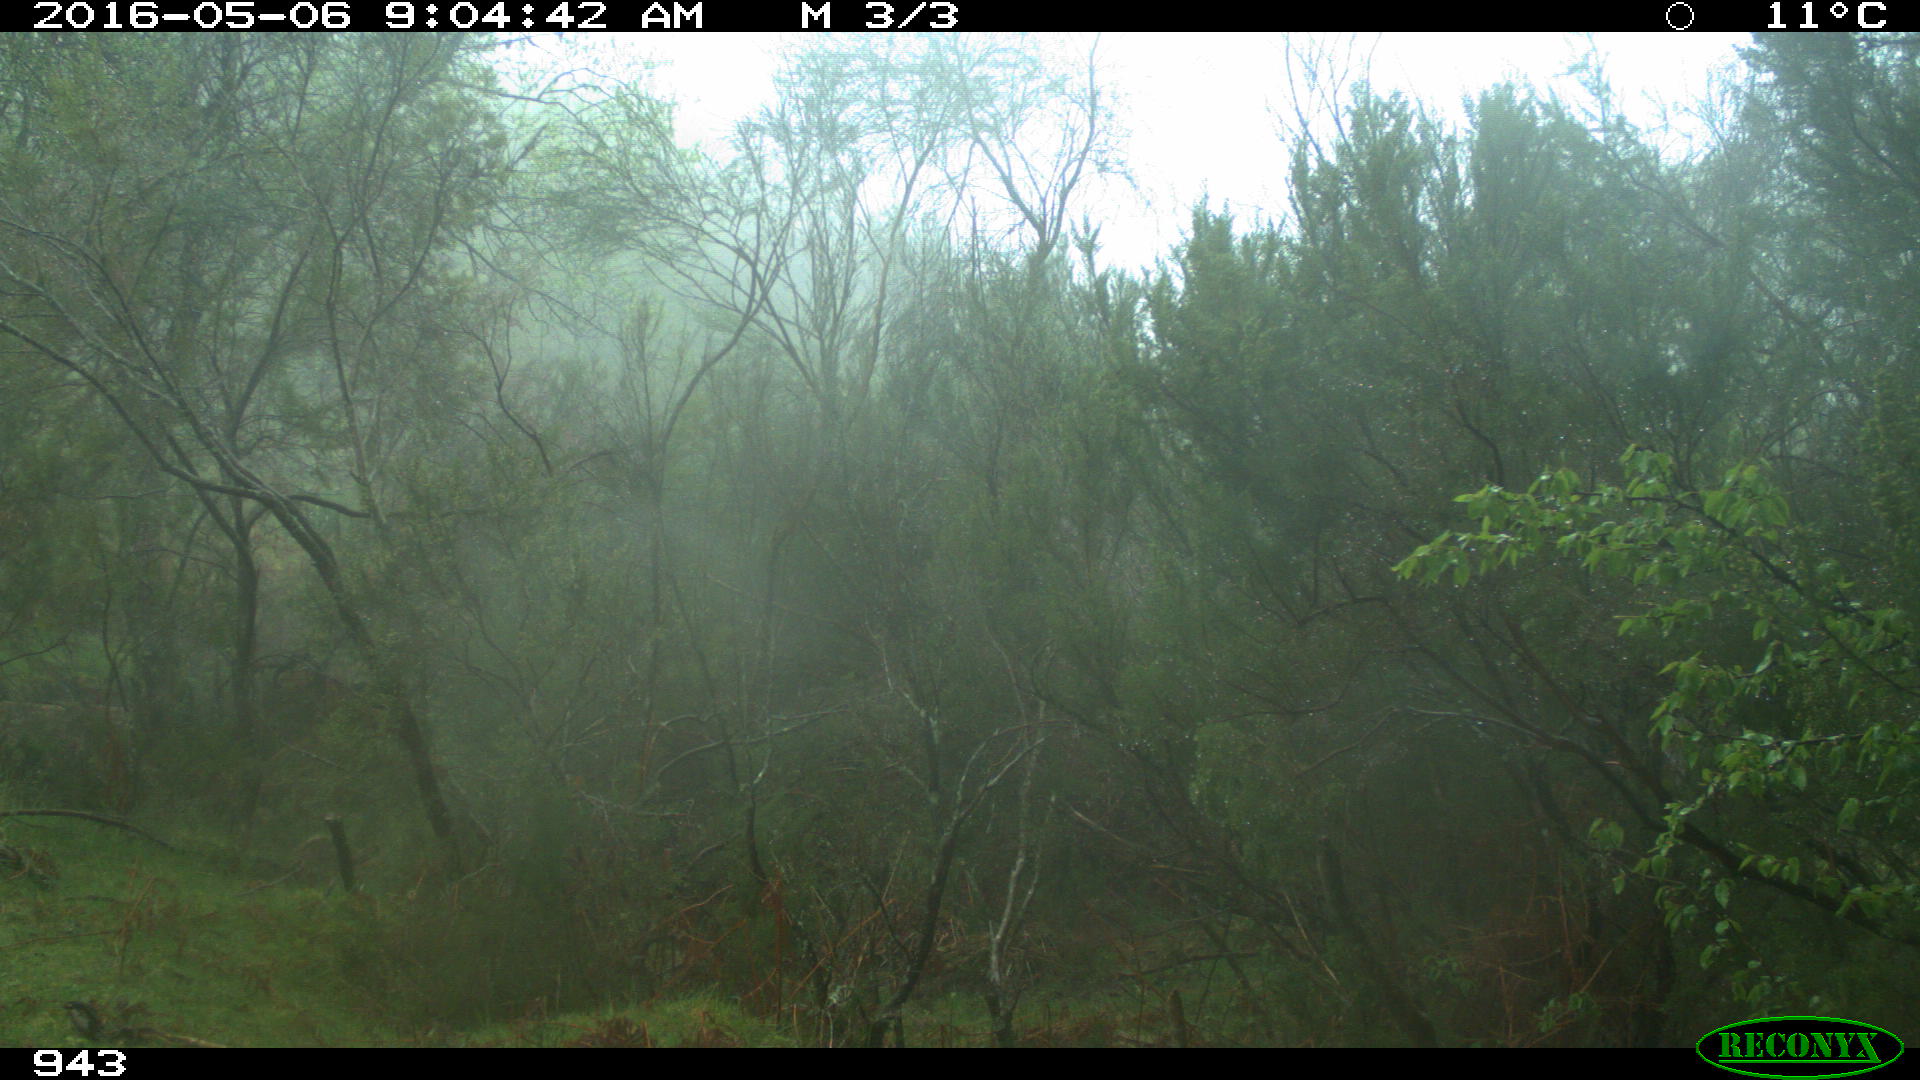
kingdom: Animalia
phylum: Chordata
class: Mammalia
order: Perissodactyla
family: Equidae
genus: Equus
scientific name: Equus caballus
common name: Horse
